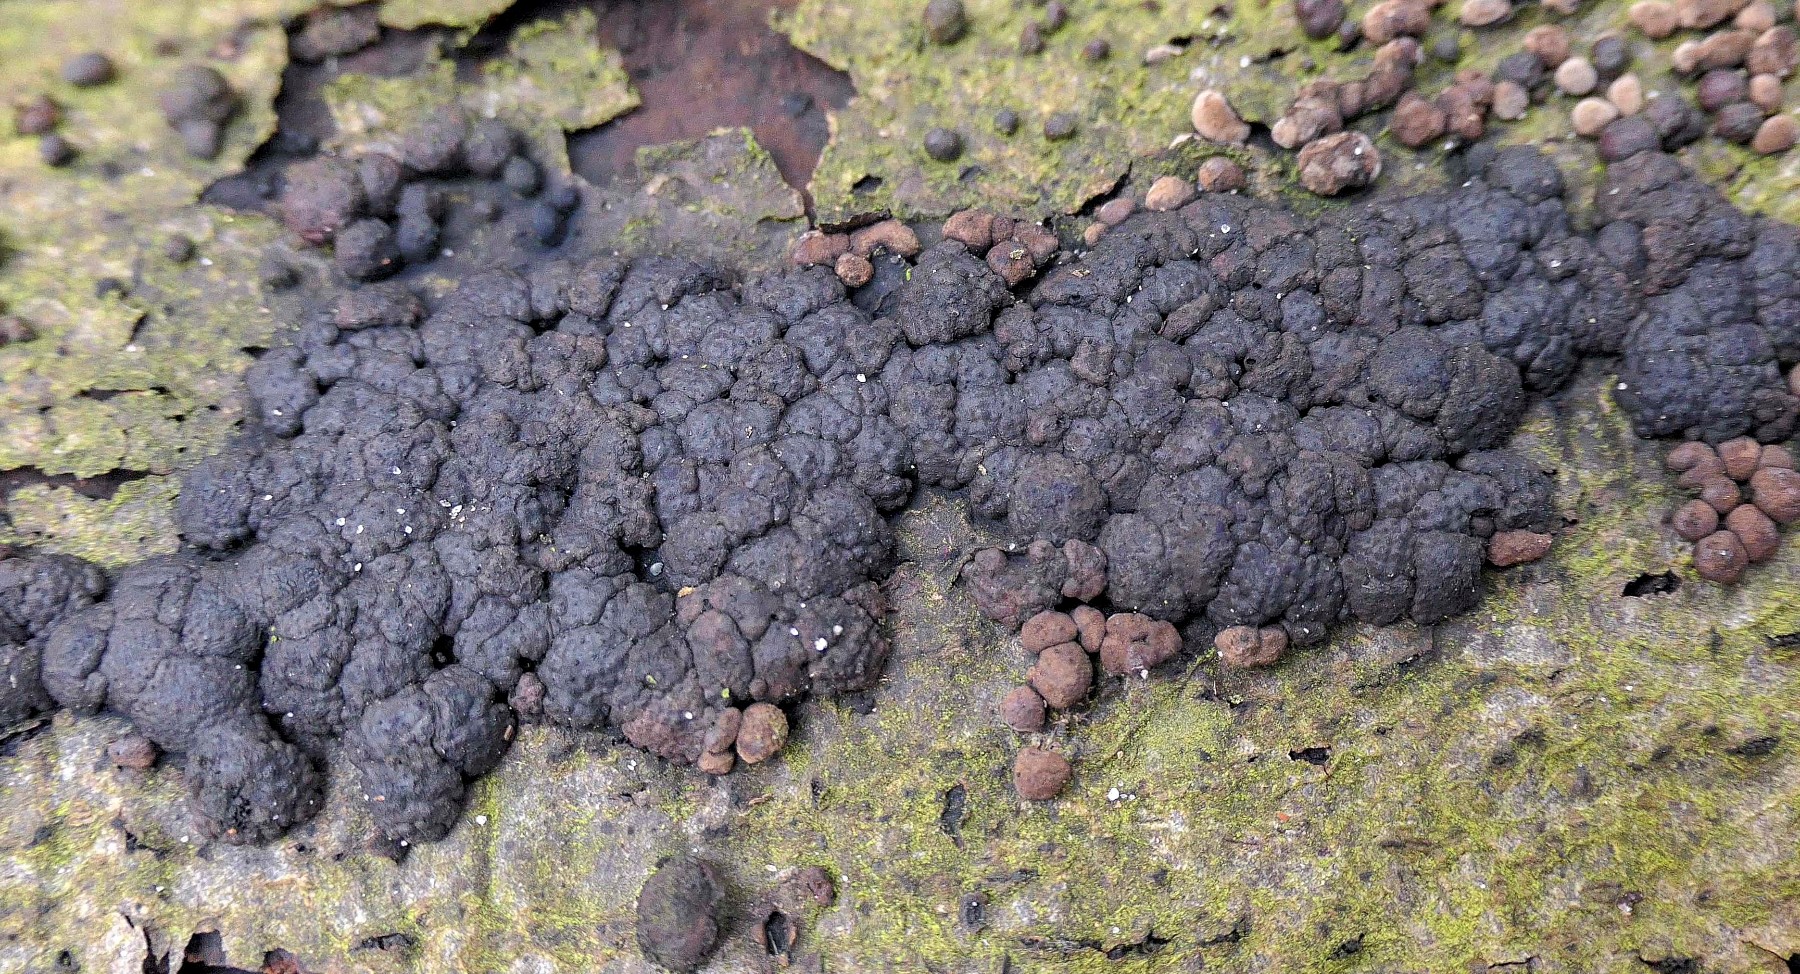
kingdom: Fungi
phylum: Ascomycota
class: Sordariomycetes
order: Xylariales
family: Hypoxylaceae
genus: Jackrogersella
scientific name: Jackrogersella cohaerens
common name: sammenflydende kulbær
